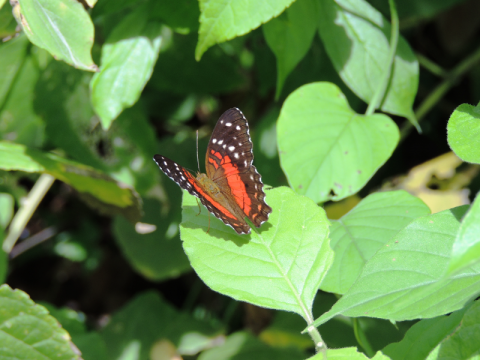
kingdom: Animalia
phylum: Arthropoda
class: Insecta
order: Lepidoptera
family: Nymphalidae
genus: Anartia
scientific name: Anartia amathea
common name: Red Peacock
